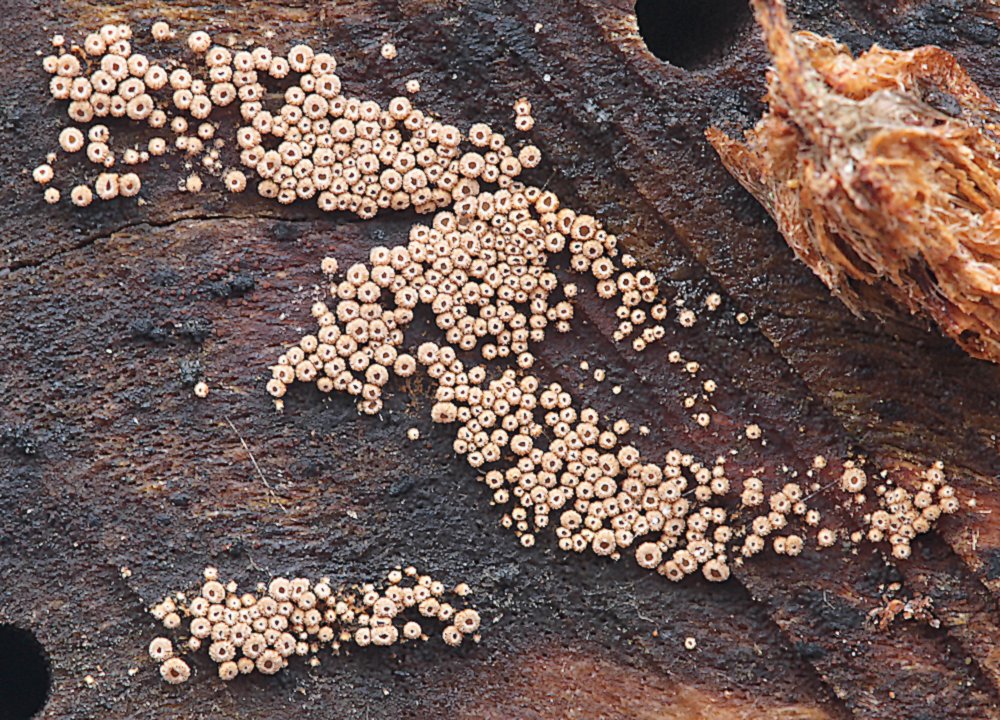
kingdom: Fungi
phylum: Basidiomycota
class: Agaricomycetes
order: Agaricales
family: Niaceae
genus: Merismodes
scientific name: Merismodes anomala
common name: almindelig læderskål
